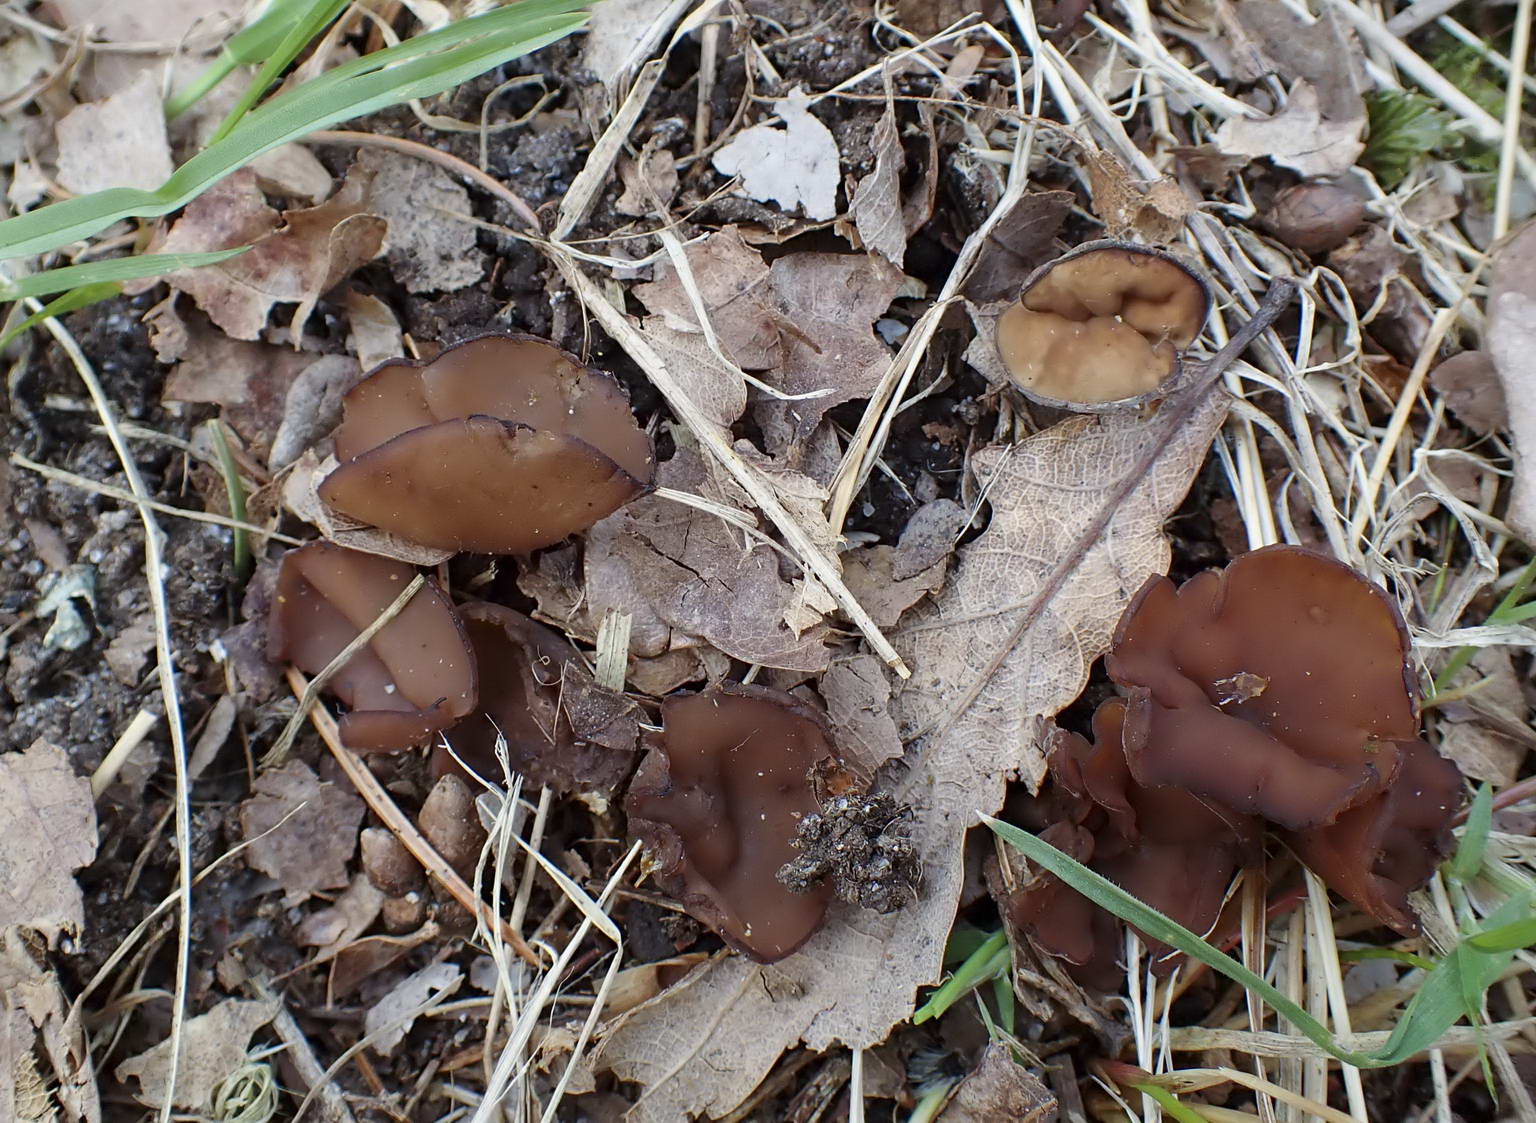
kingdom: Fungi
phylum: Ascomycota
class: Leotiomycetes
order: Helotiales
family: Sclerotiniaceae
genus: Dumontinia
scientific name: Dumontinia tuberosa
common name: anemone-knoldskive
